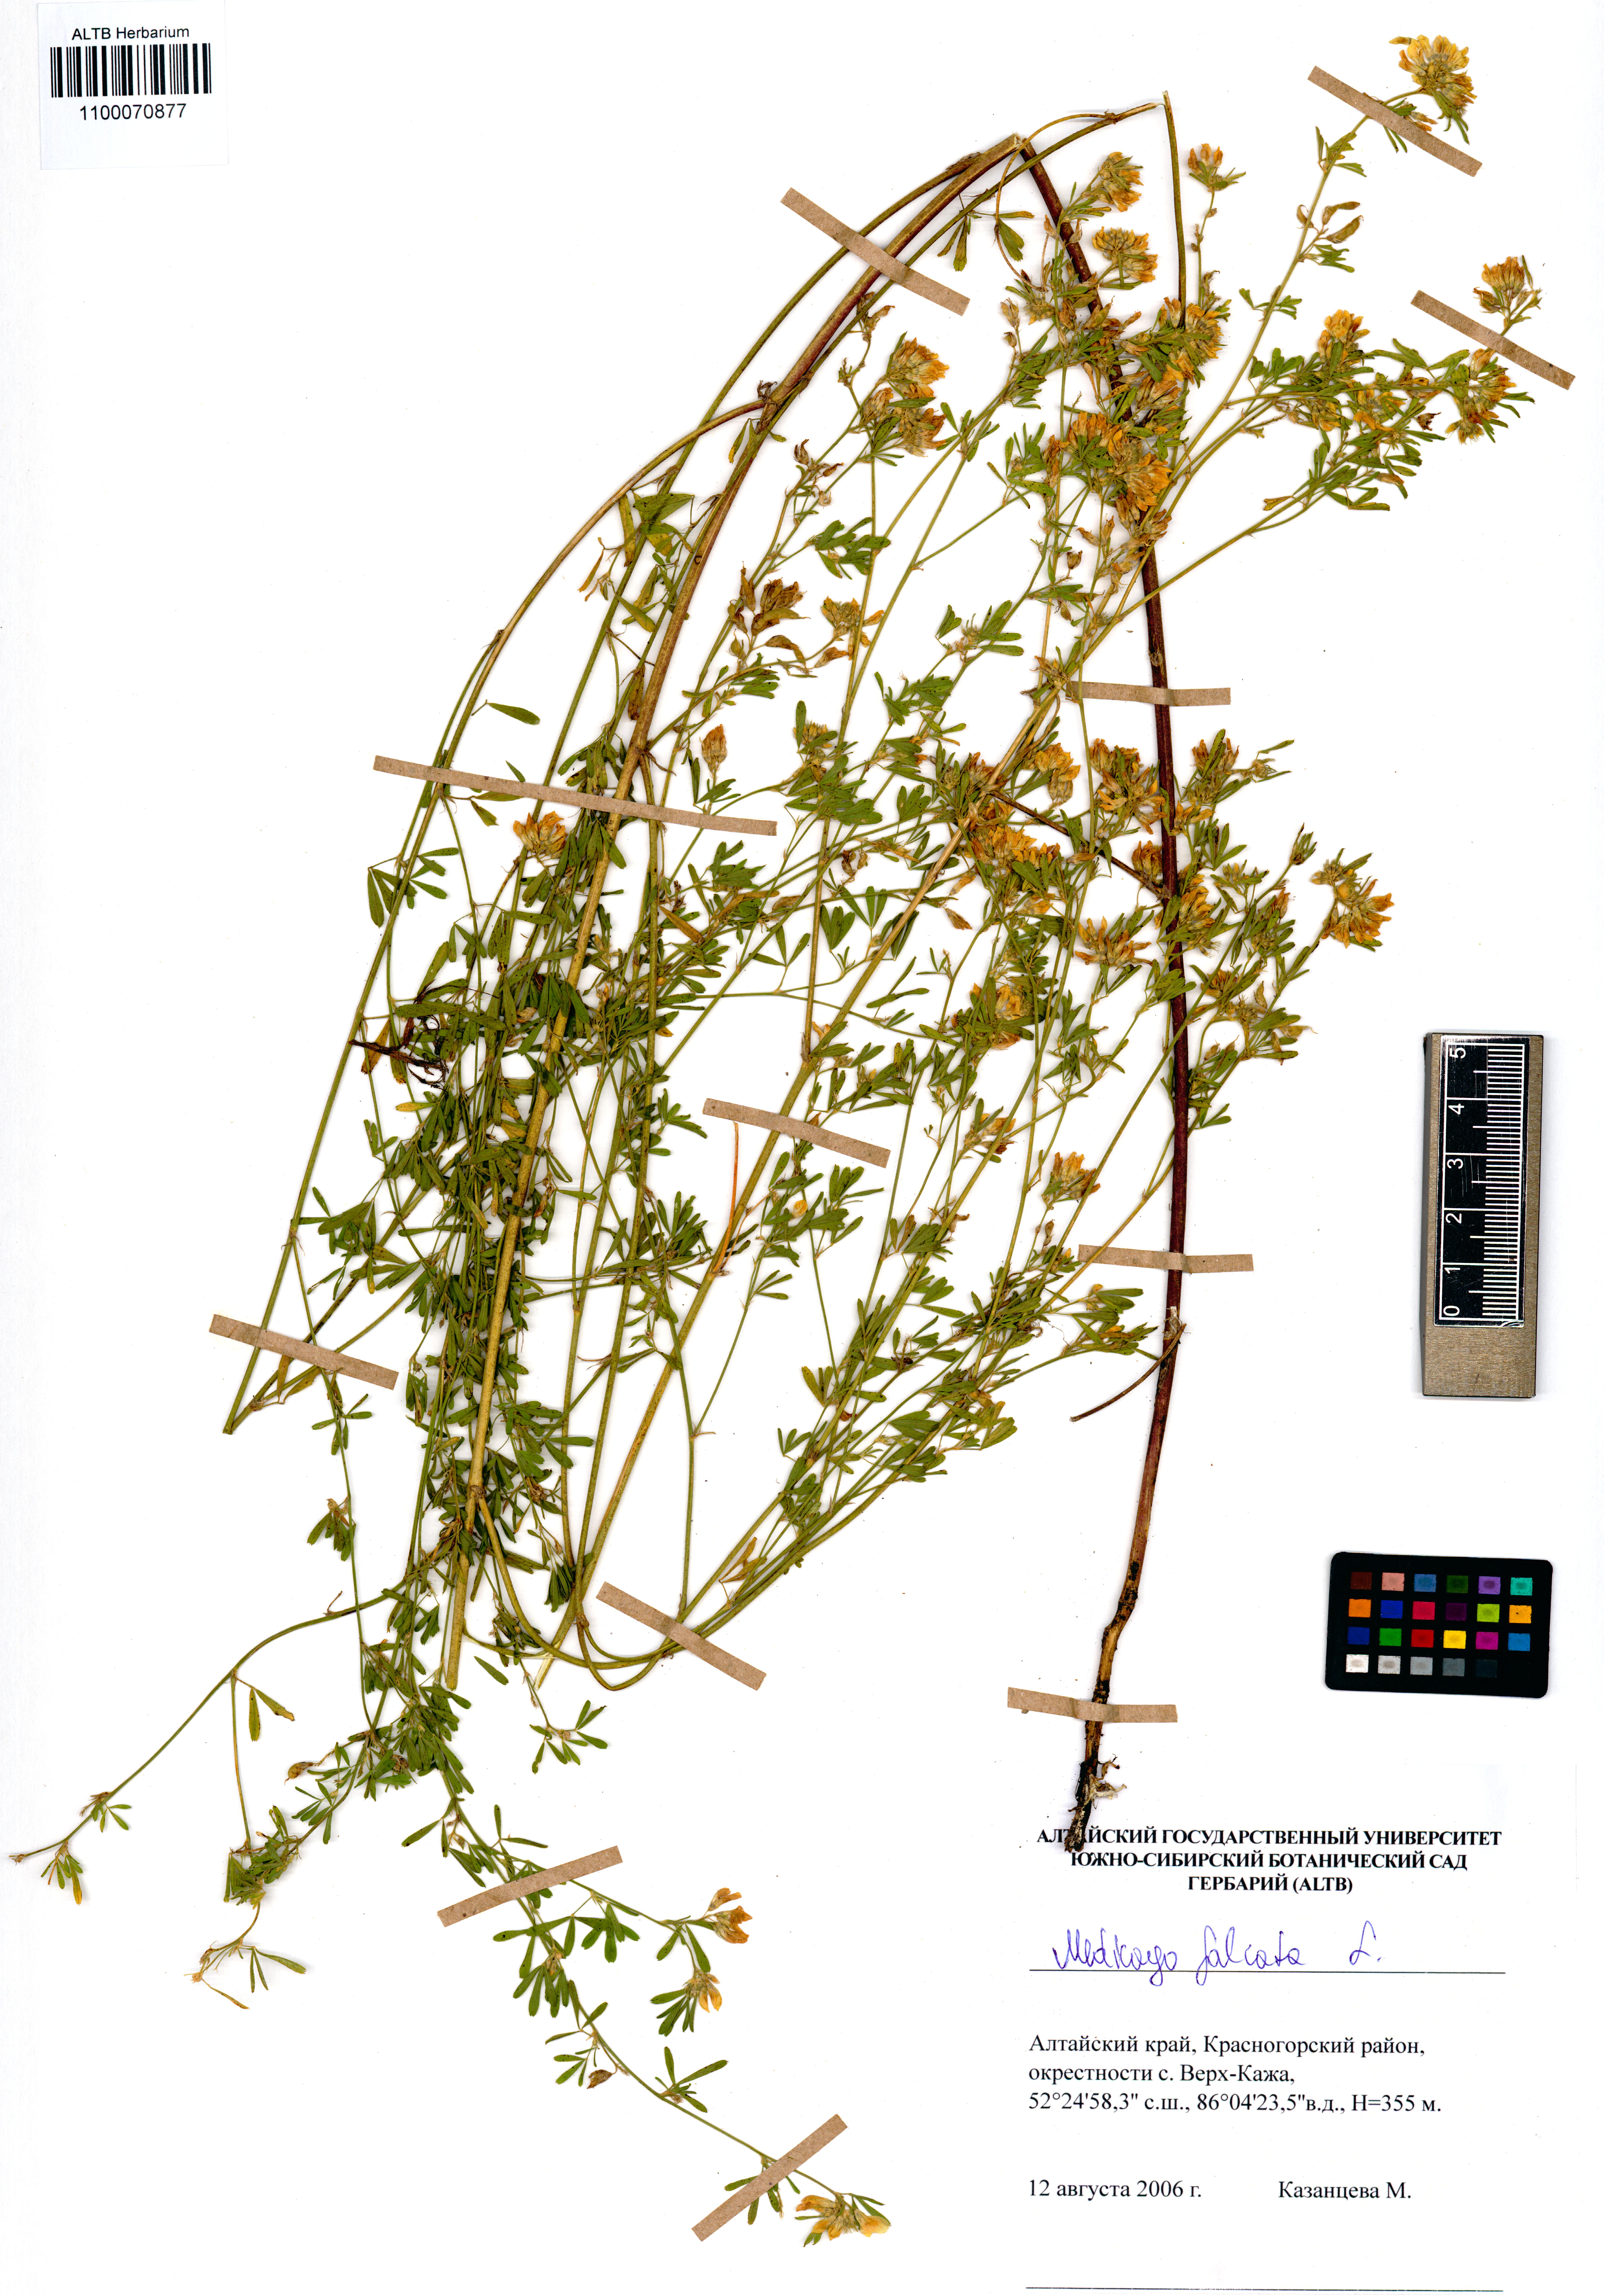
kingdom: Plantae
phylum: Tracheophyta
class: Magnoliopsida
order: Fabales
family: Fabaceae
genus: Medicago
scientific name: Medicago falcata
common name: Sickle medick
